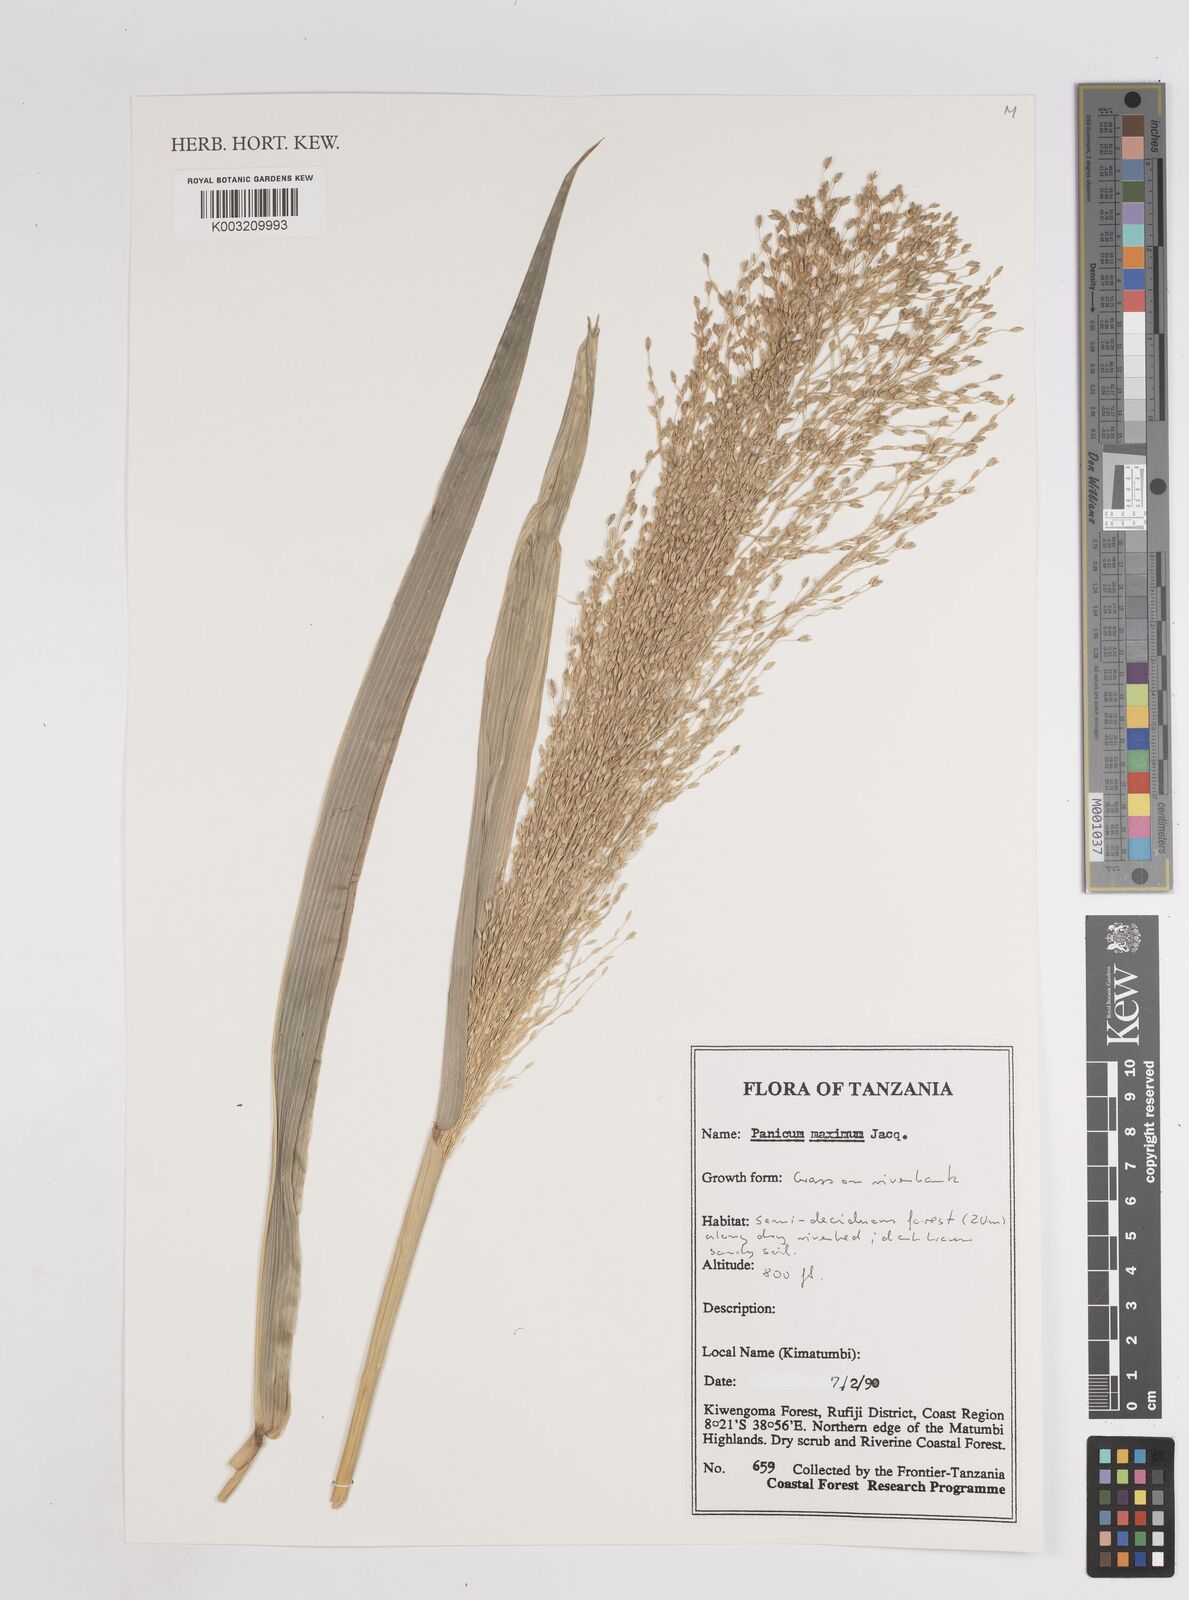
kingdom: Plantae
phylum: Tracheophyta
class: Liliopsida
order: Poales
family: Poaceae
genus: Megathyrsus
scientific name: Megathyrsus maximus
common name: Guineagrass
